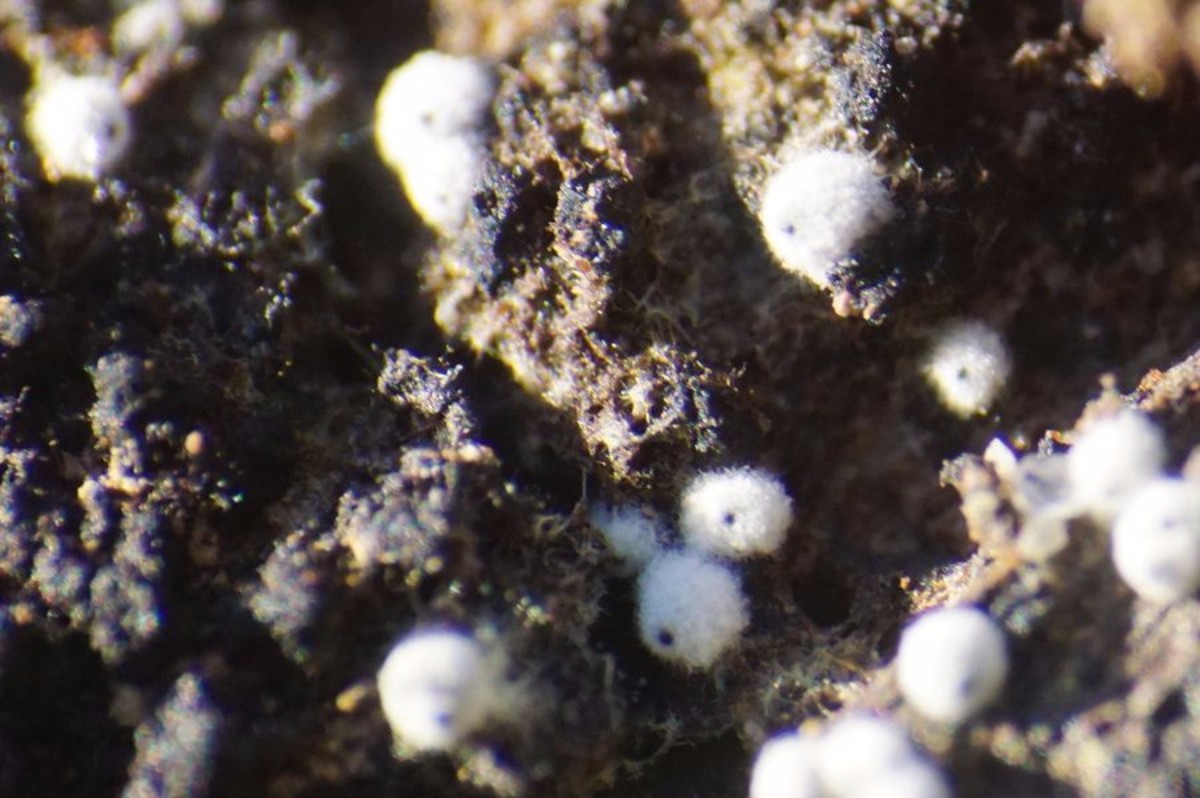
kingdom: Fungi
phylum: Ascomycota
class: Sordariomycetes
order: Sordariales
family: Lasiosphaeriaceae
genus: Lasiosphaeria
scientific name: Lasiosphaeria ovina
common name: fåre-kernesvamp
